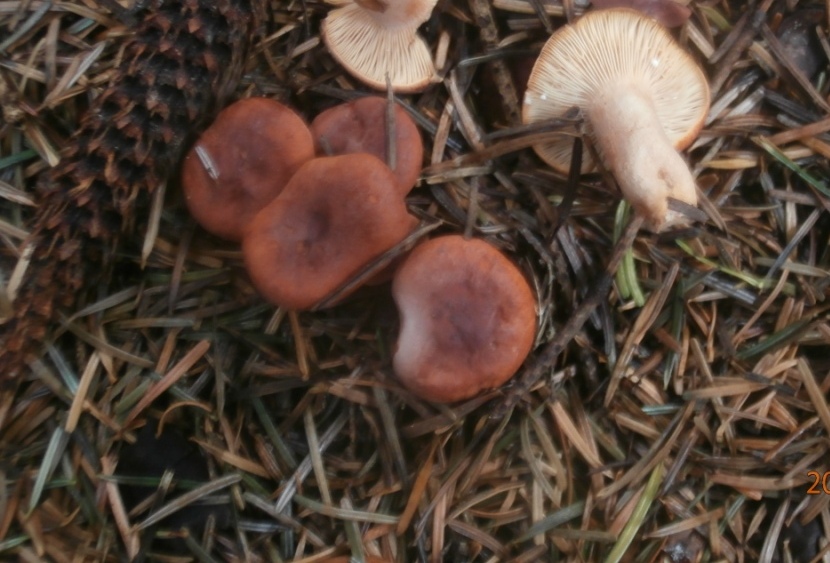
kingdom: Fungi
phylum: Basidiomycota
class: Agaricomycetes
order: Russulales
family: Russulaceae
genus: Lactarius
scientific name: Lactarius aurantiacus
